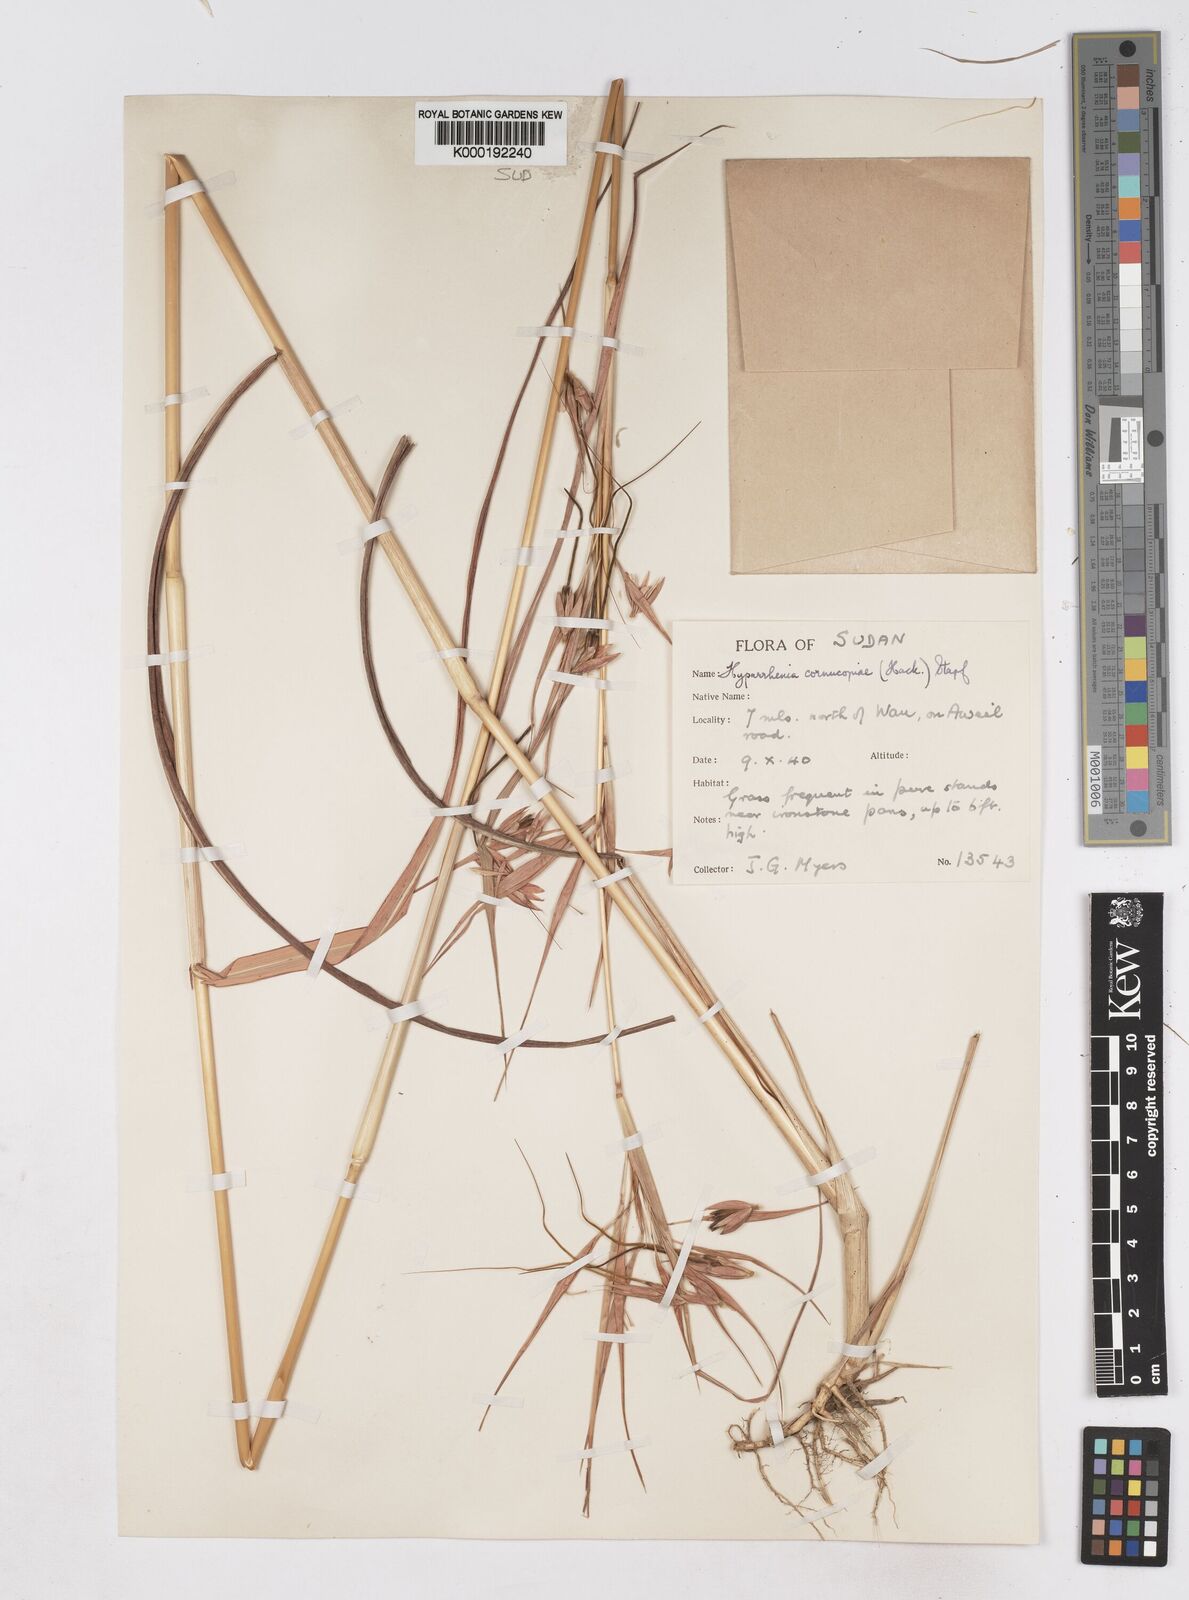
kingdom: Plantae
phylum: Tracheophyta
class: Liliopsida
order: Poales
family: Poaceae
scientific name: Poaceae
